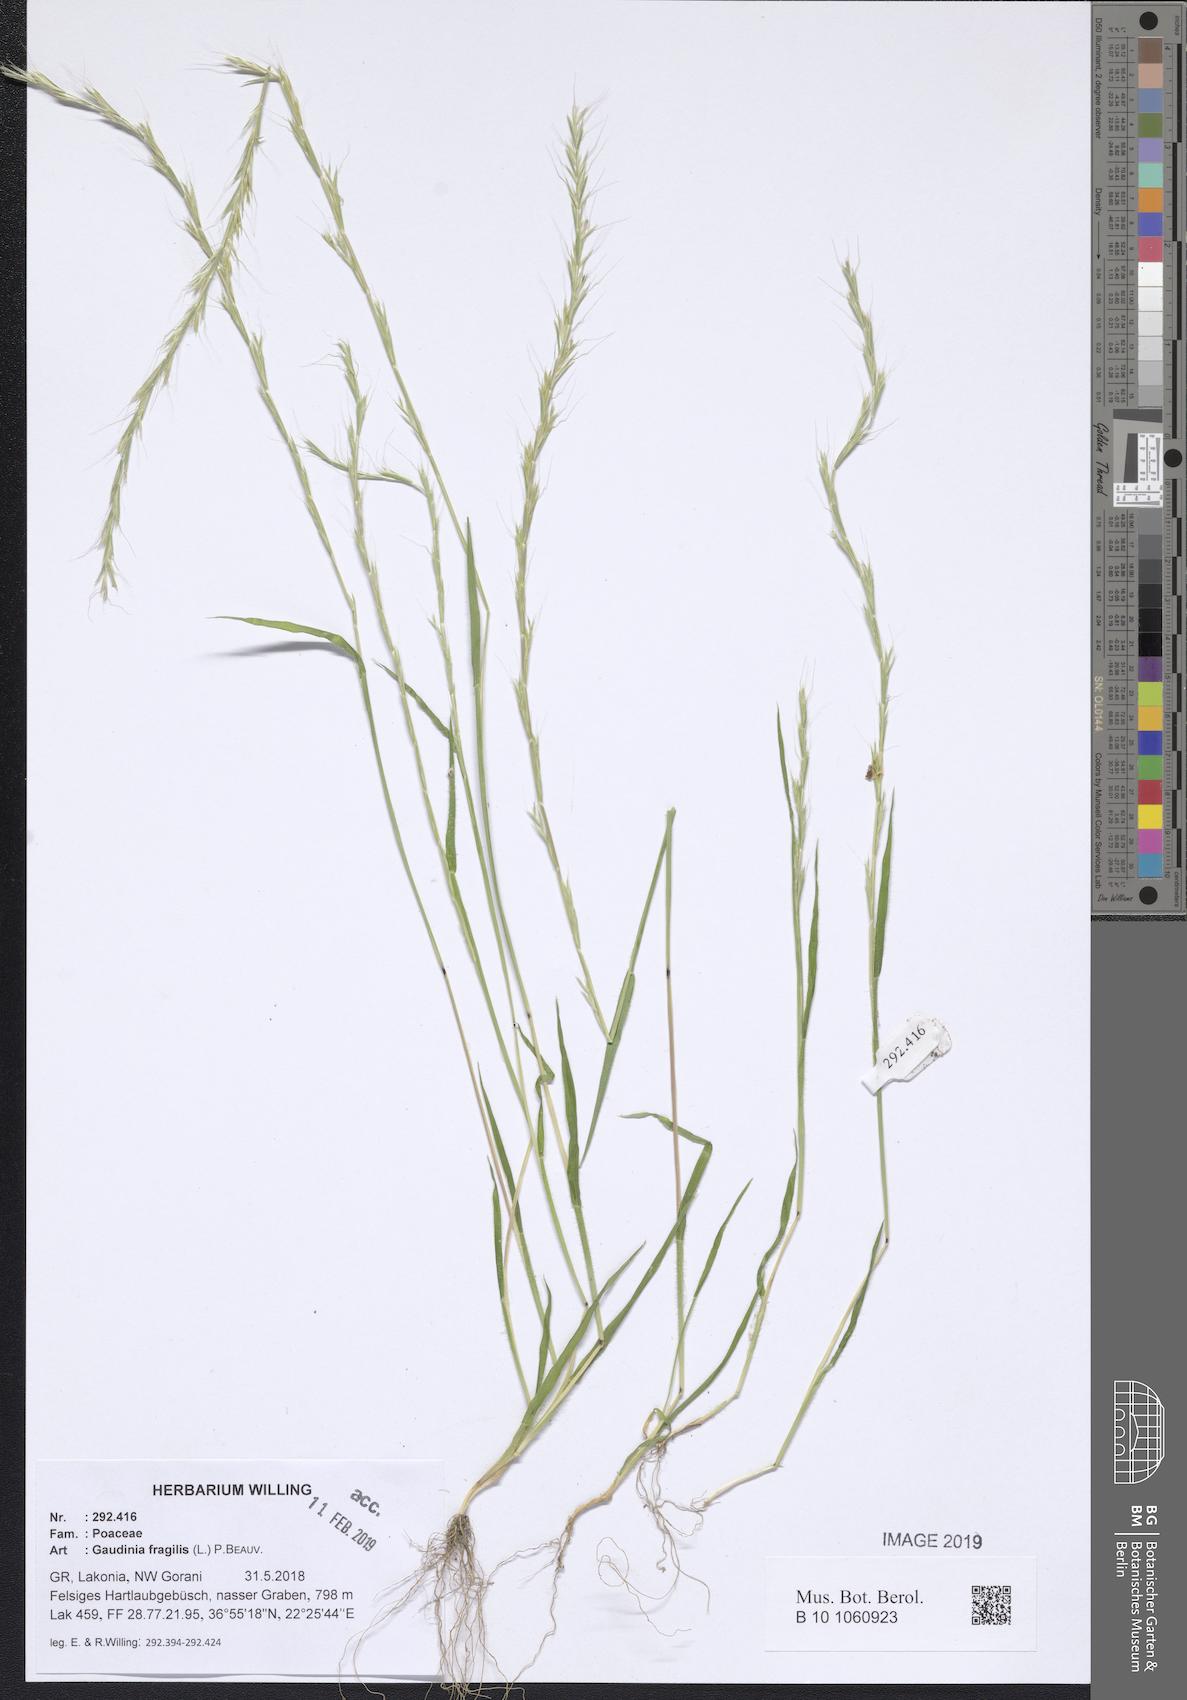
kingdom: Plantae
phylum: Tracheophyta
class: Liliopsida
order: Poales
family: Poaceae
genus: Gaudinia
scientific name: Gaudinia fragilis
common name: French oat-grass
